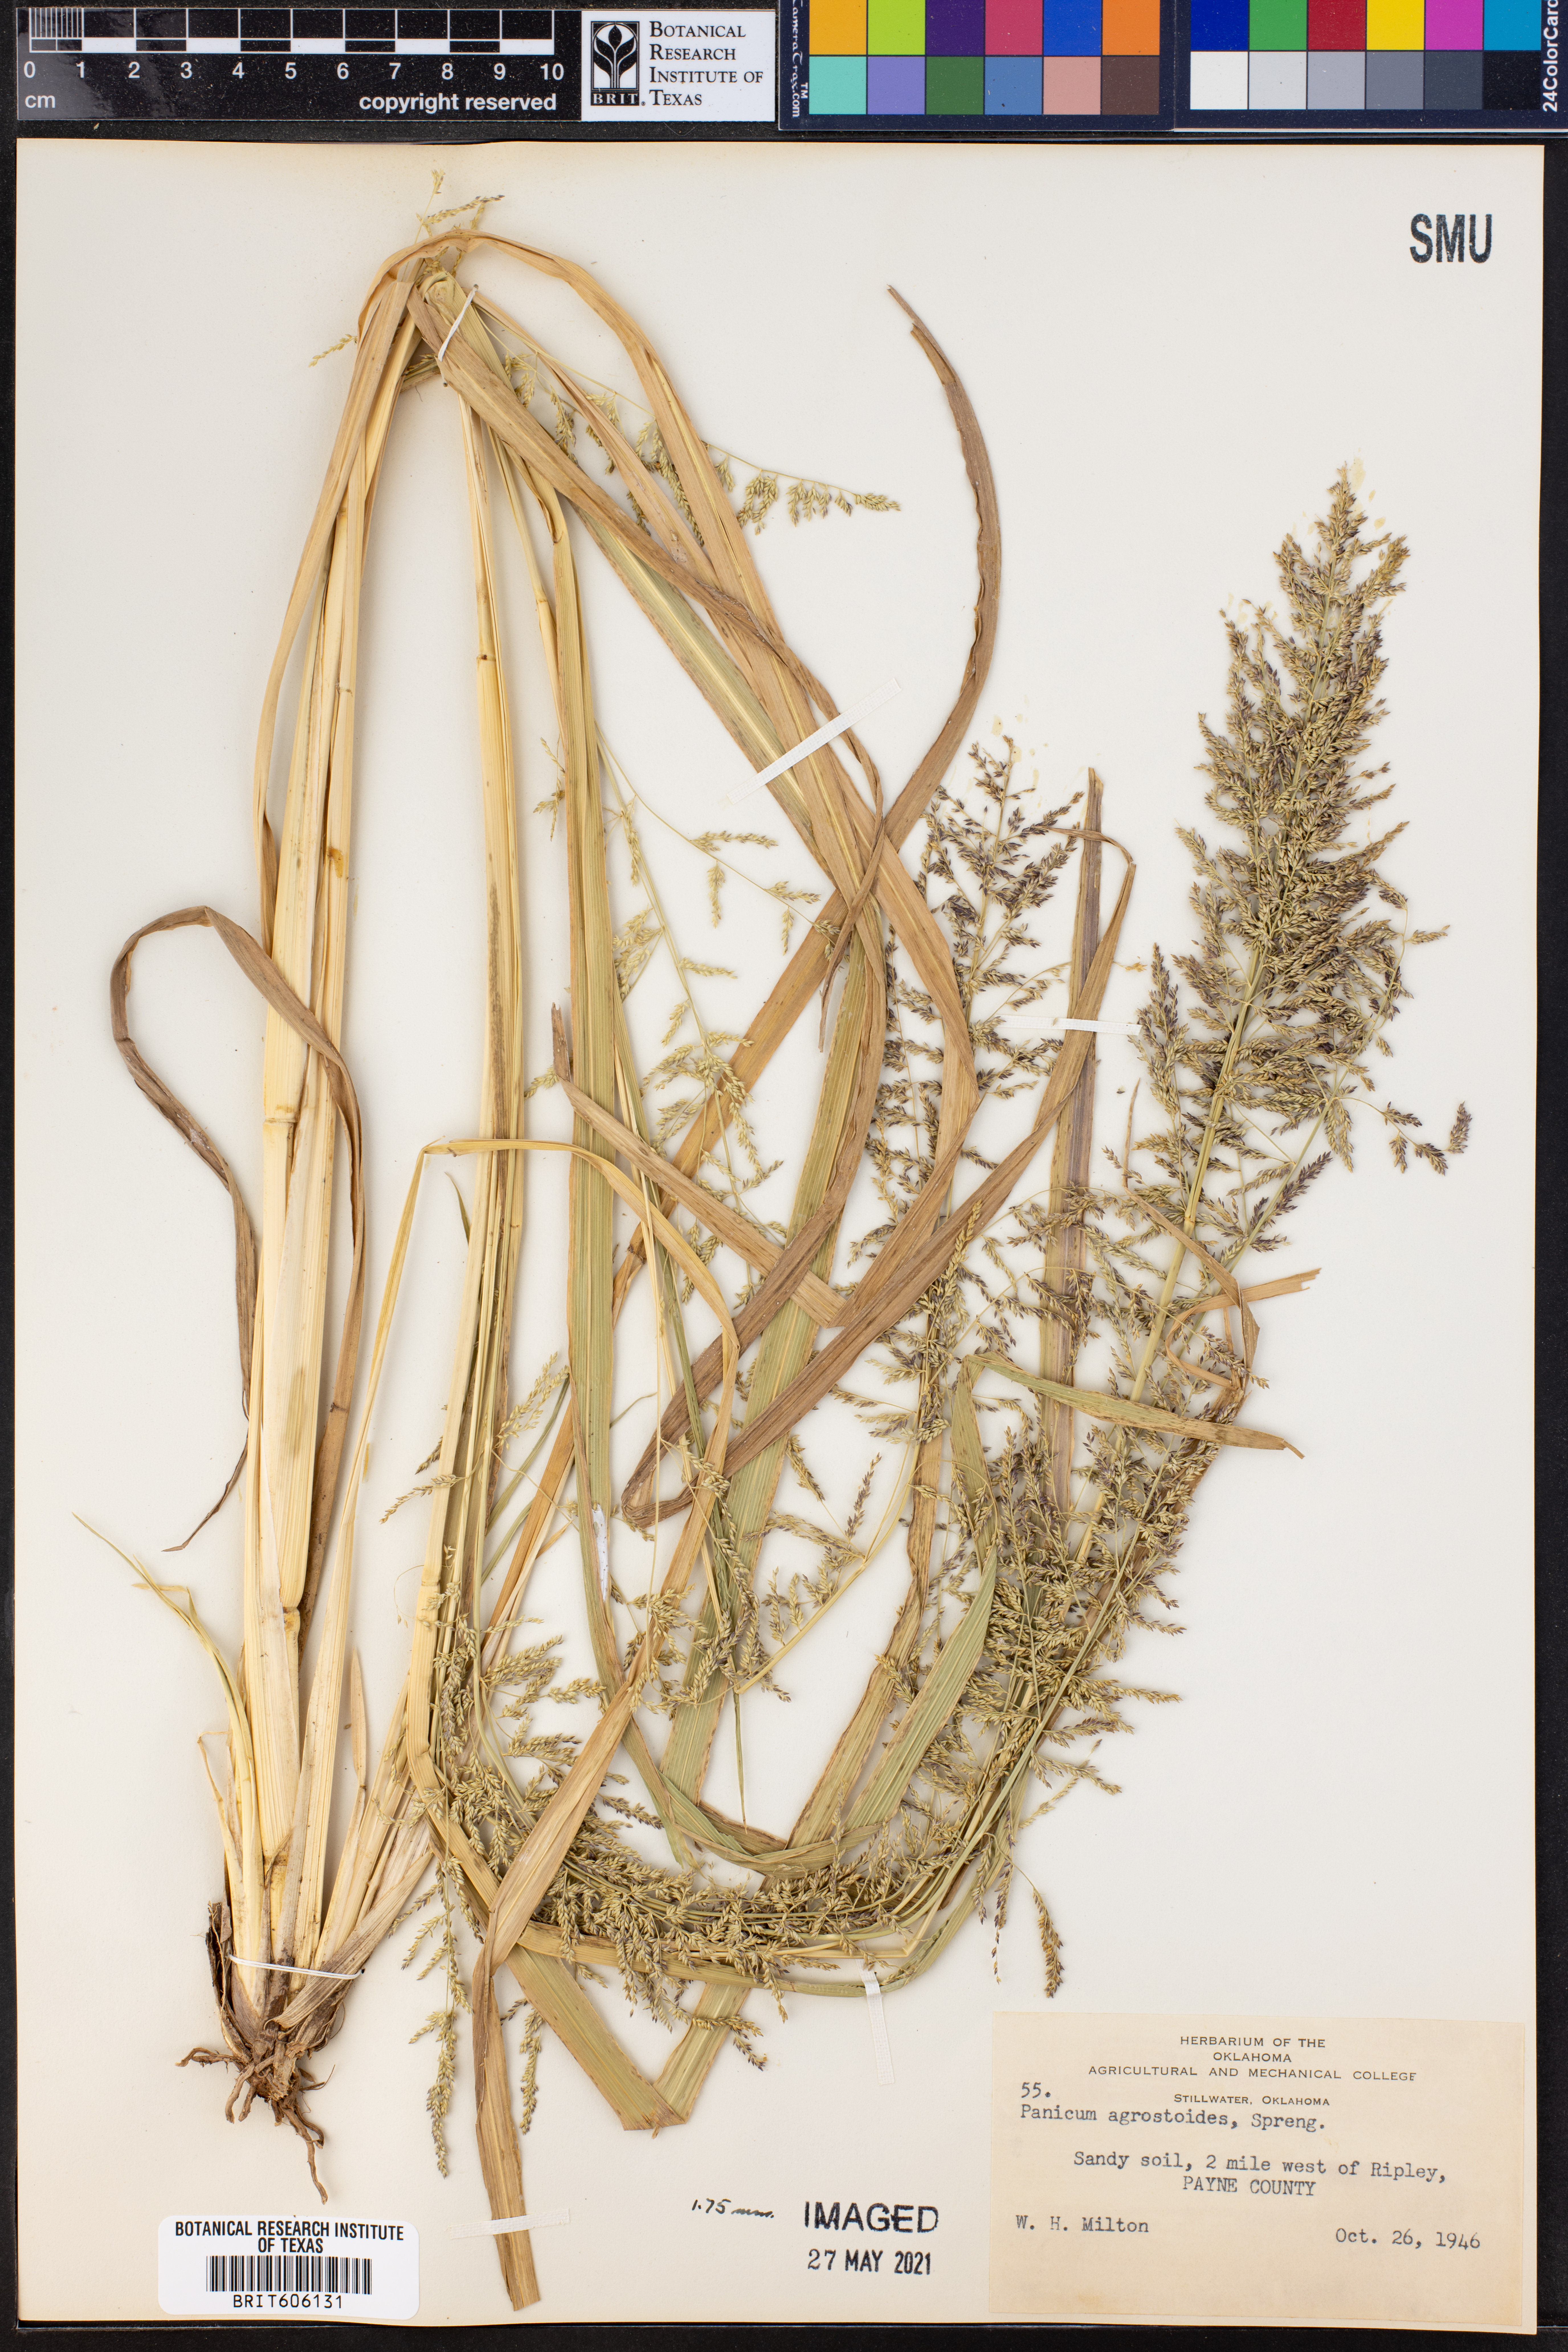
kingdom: Plantae
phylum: Tracheophyta
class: Liliopsida
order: Poales
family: Poaceae
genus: Steinchisma
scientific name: Steinchisma laxum
